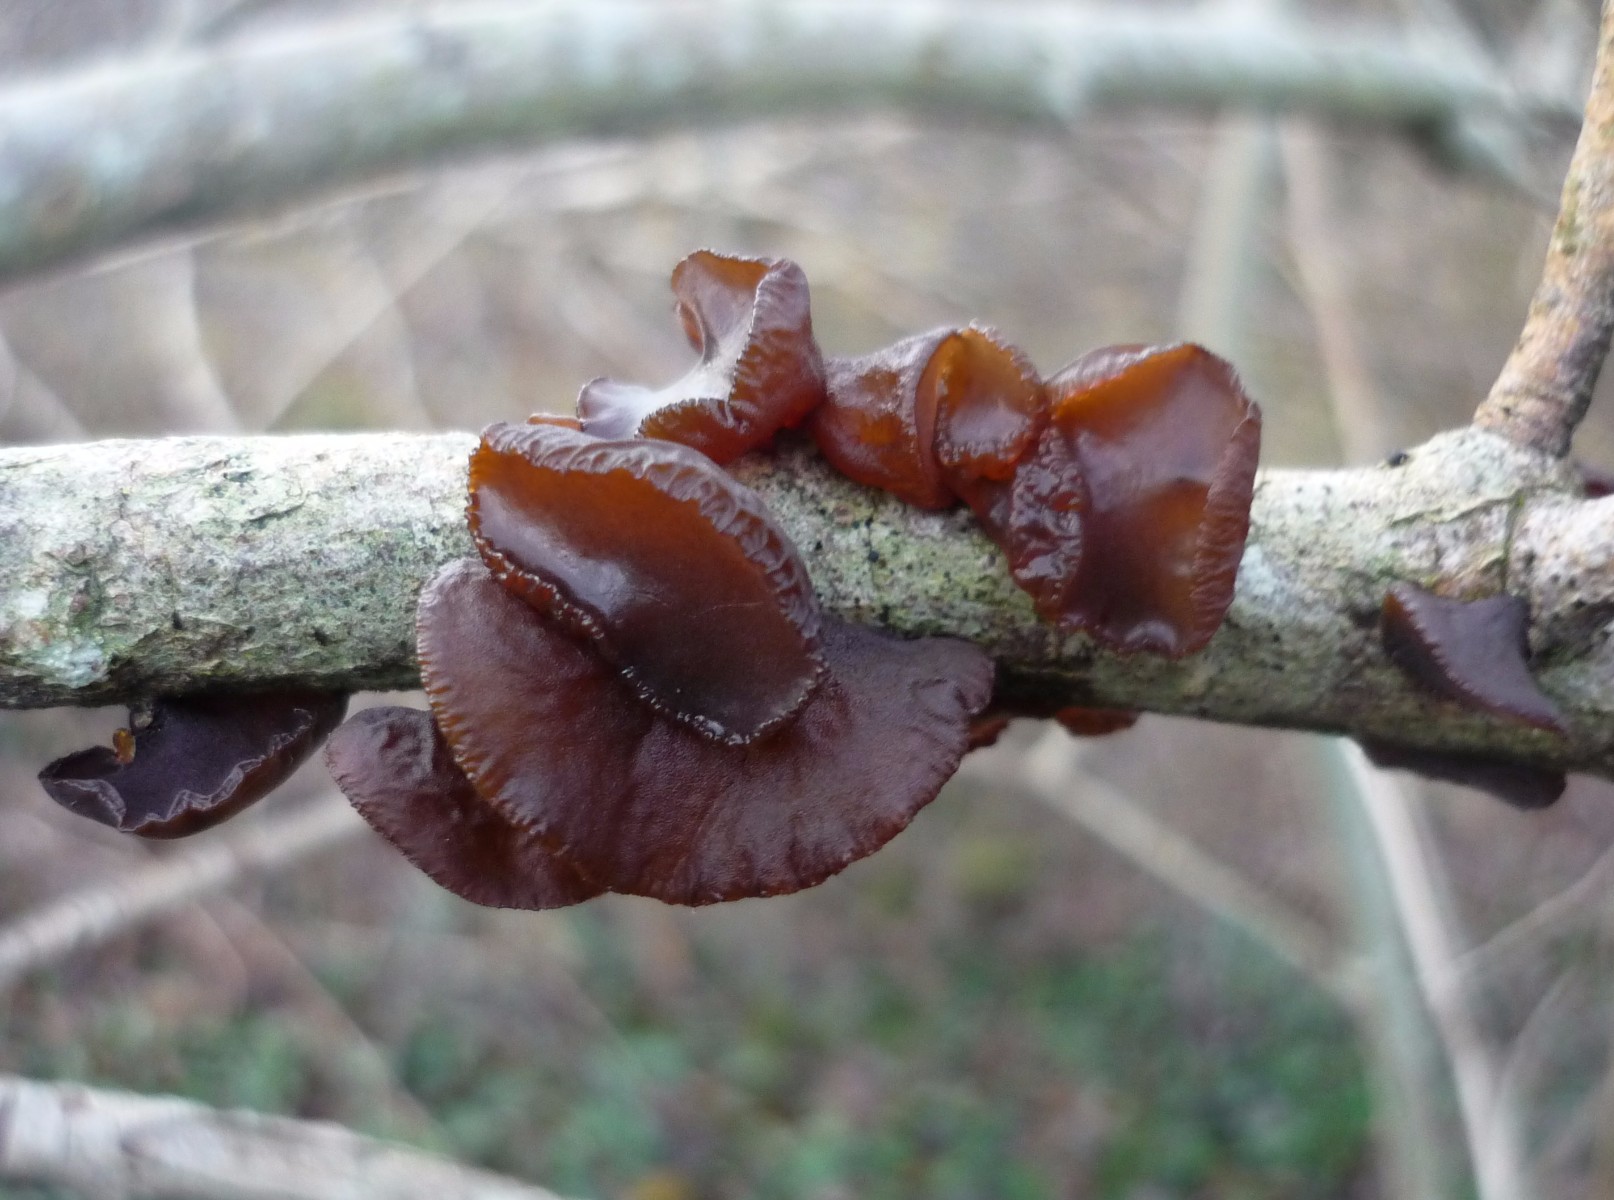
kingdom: Fungi
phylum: Basidiomycota
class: Agaricomycetes
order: Auriculariales
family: Auriculariaceae
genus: Exidia
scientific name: Exidia recisa
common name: pile-bævretop
